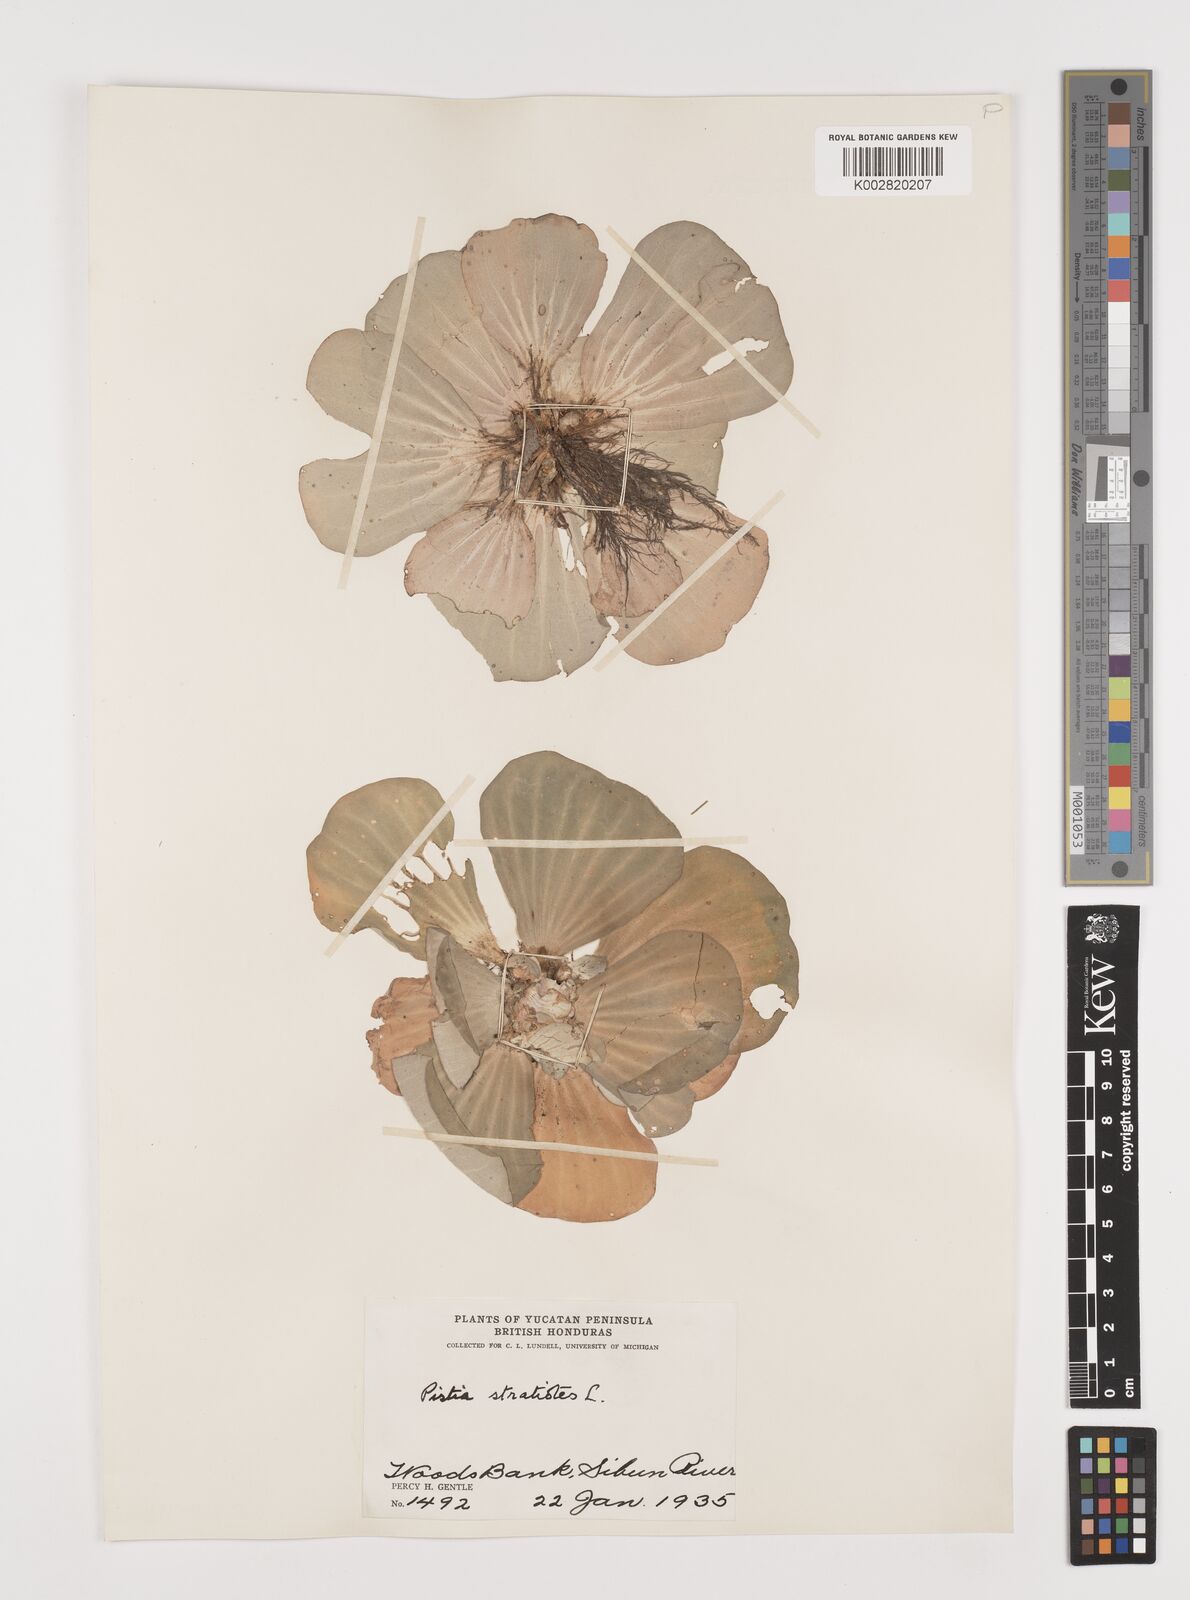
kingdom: Plantae
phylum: Tracheophyta
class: Liliopsida
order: Alismatales
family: Araceae
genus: Pistia
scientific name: Pistia stratiotes
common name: Water lettuce
